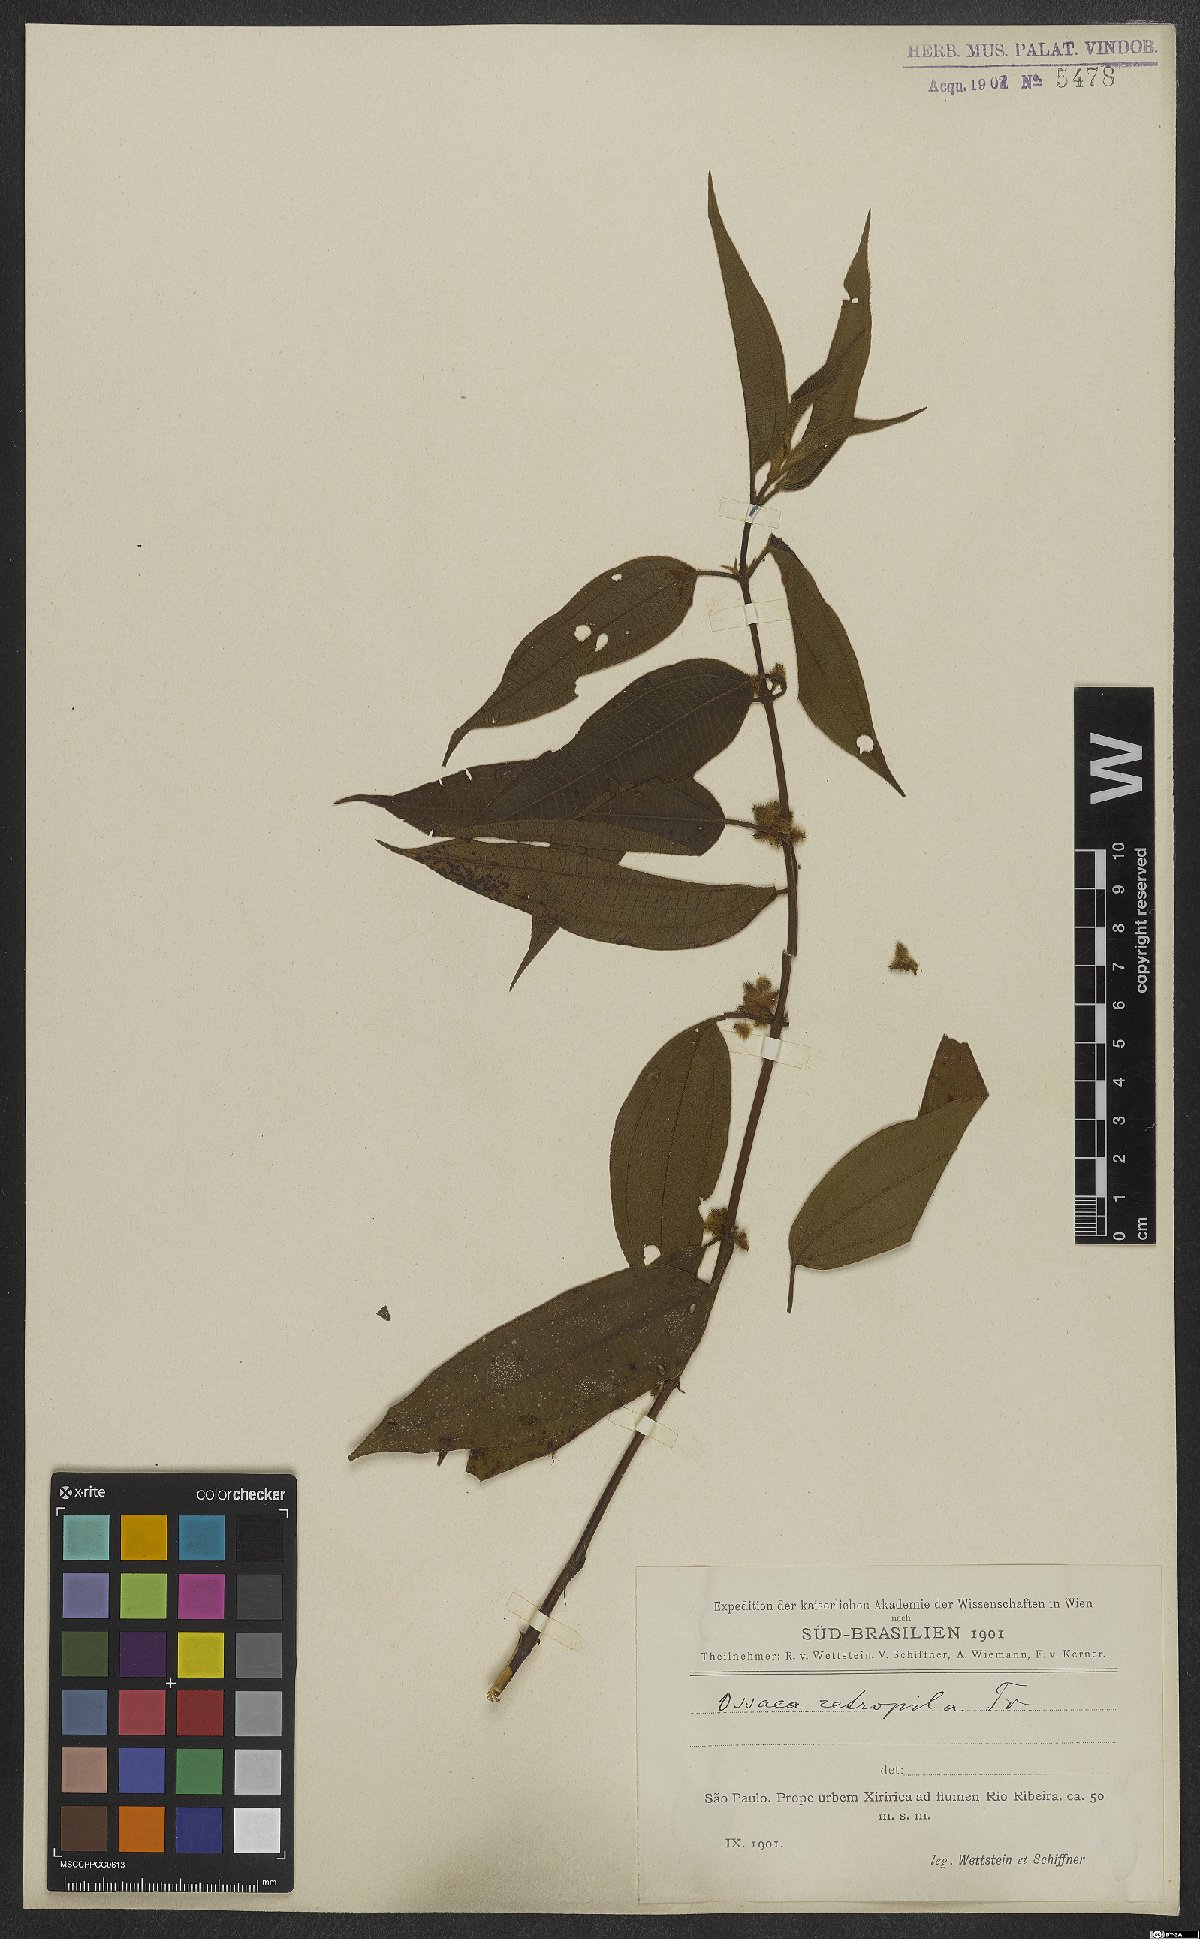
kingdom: Plantae
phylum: Tracheophyta
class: Magnoliopsida
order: Myrtales
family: Melastomataceae
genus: Miconia
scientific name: Miconia rubella
